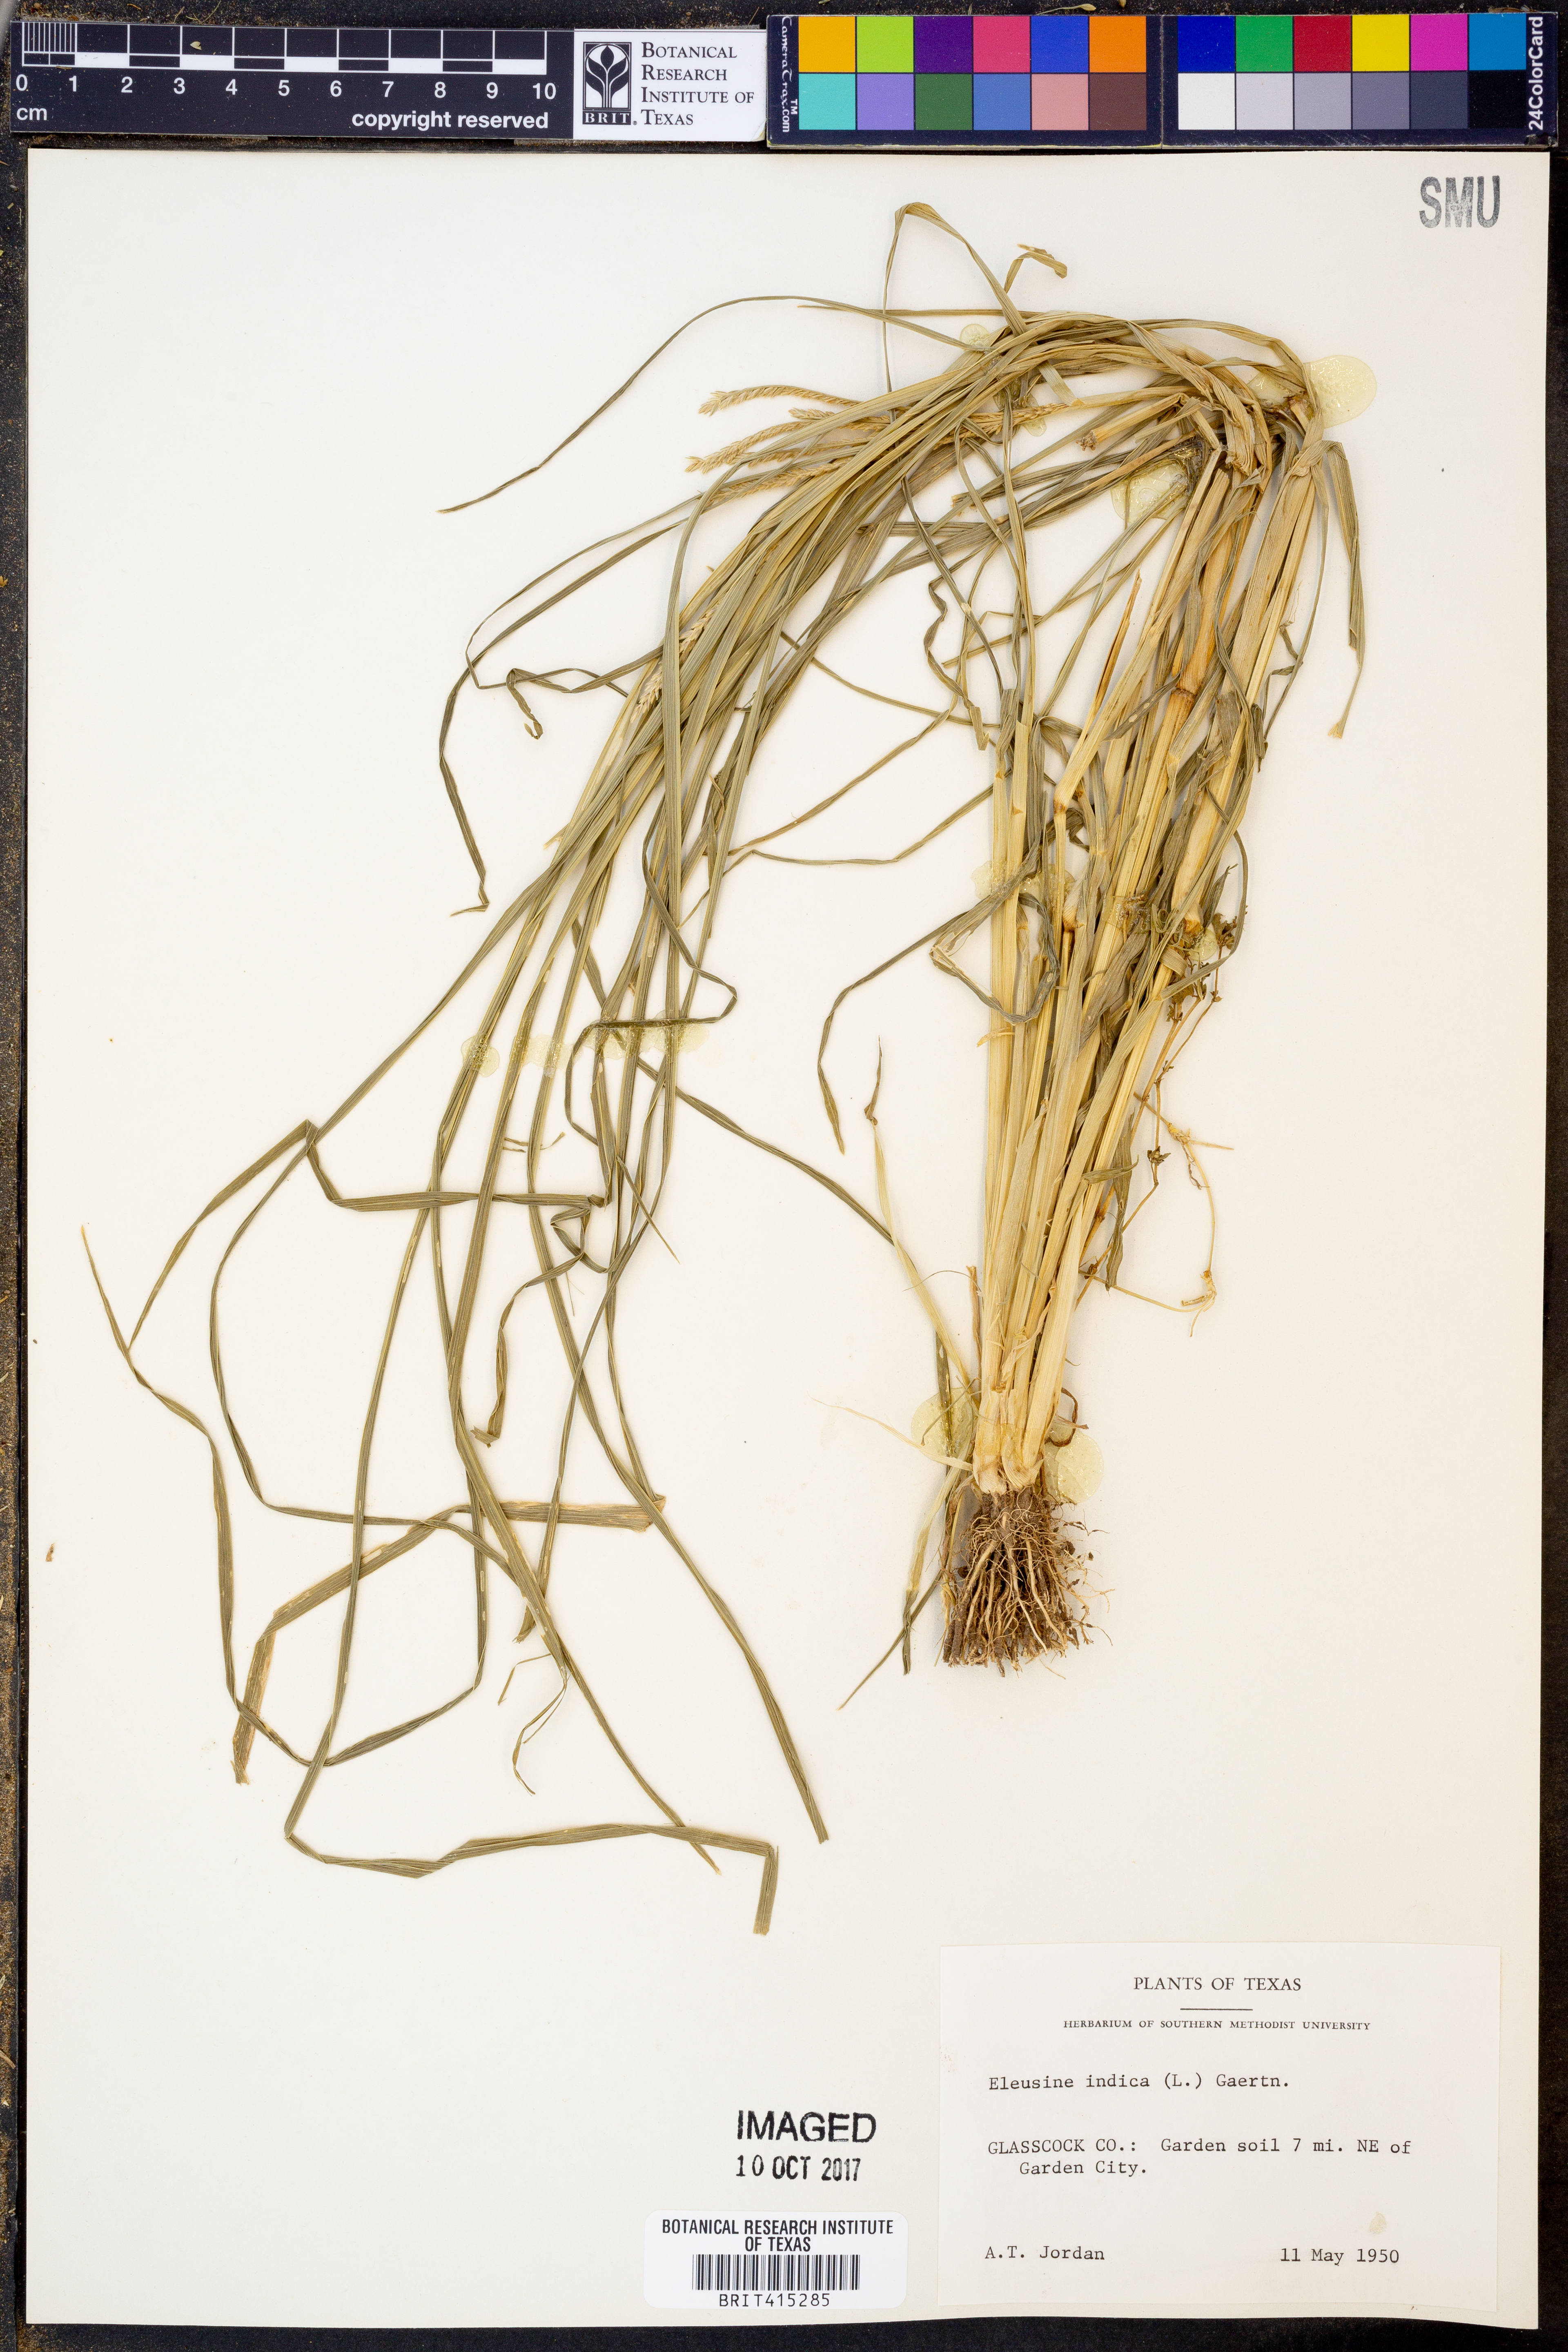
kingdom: Plantae
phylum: Tracheophyta
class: Liliopsida
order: Poales
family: Poaceae
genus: Eleusine
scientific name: Eleusine indica
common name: Yard-grass
